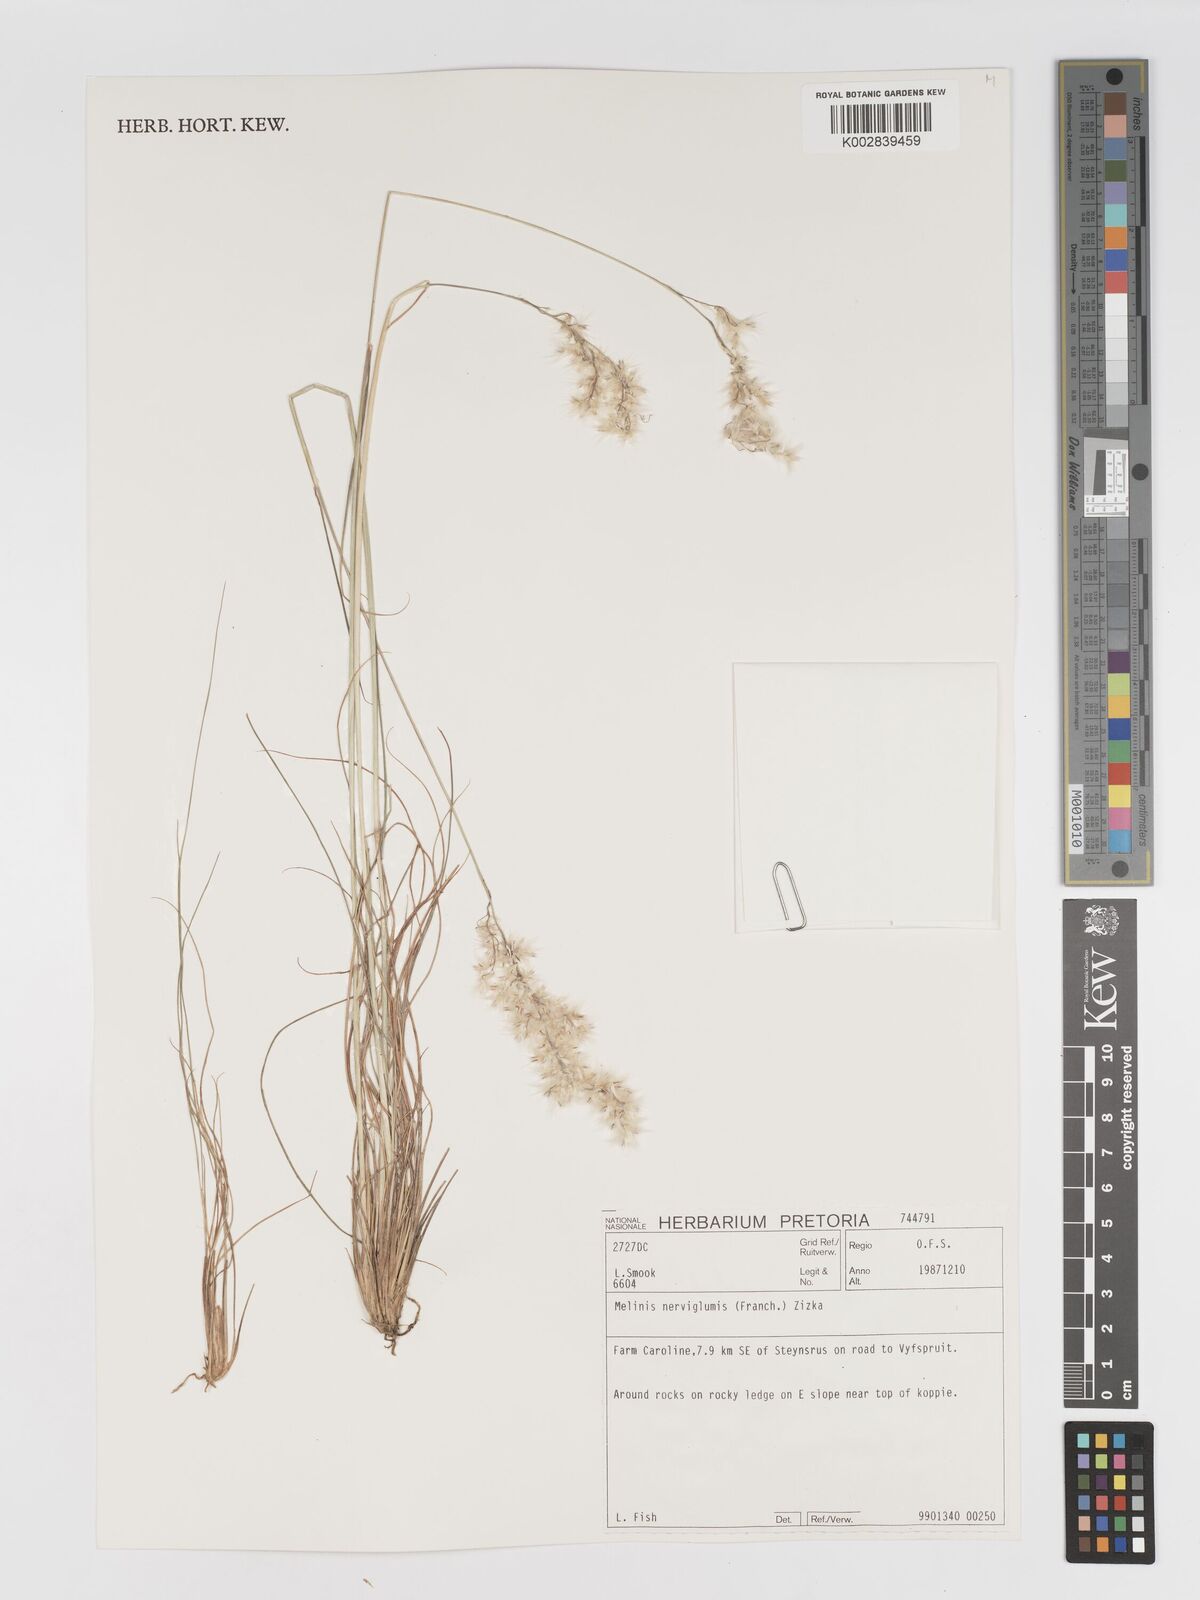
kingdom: Plantae
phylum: Tracheophyta
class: Liliopsida
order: Poales
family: Poaceae
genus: Melinis
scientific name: Melinis nerviglumis
